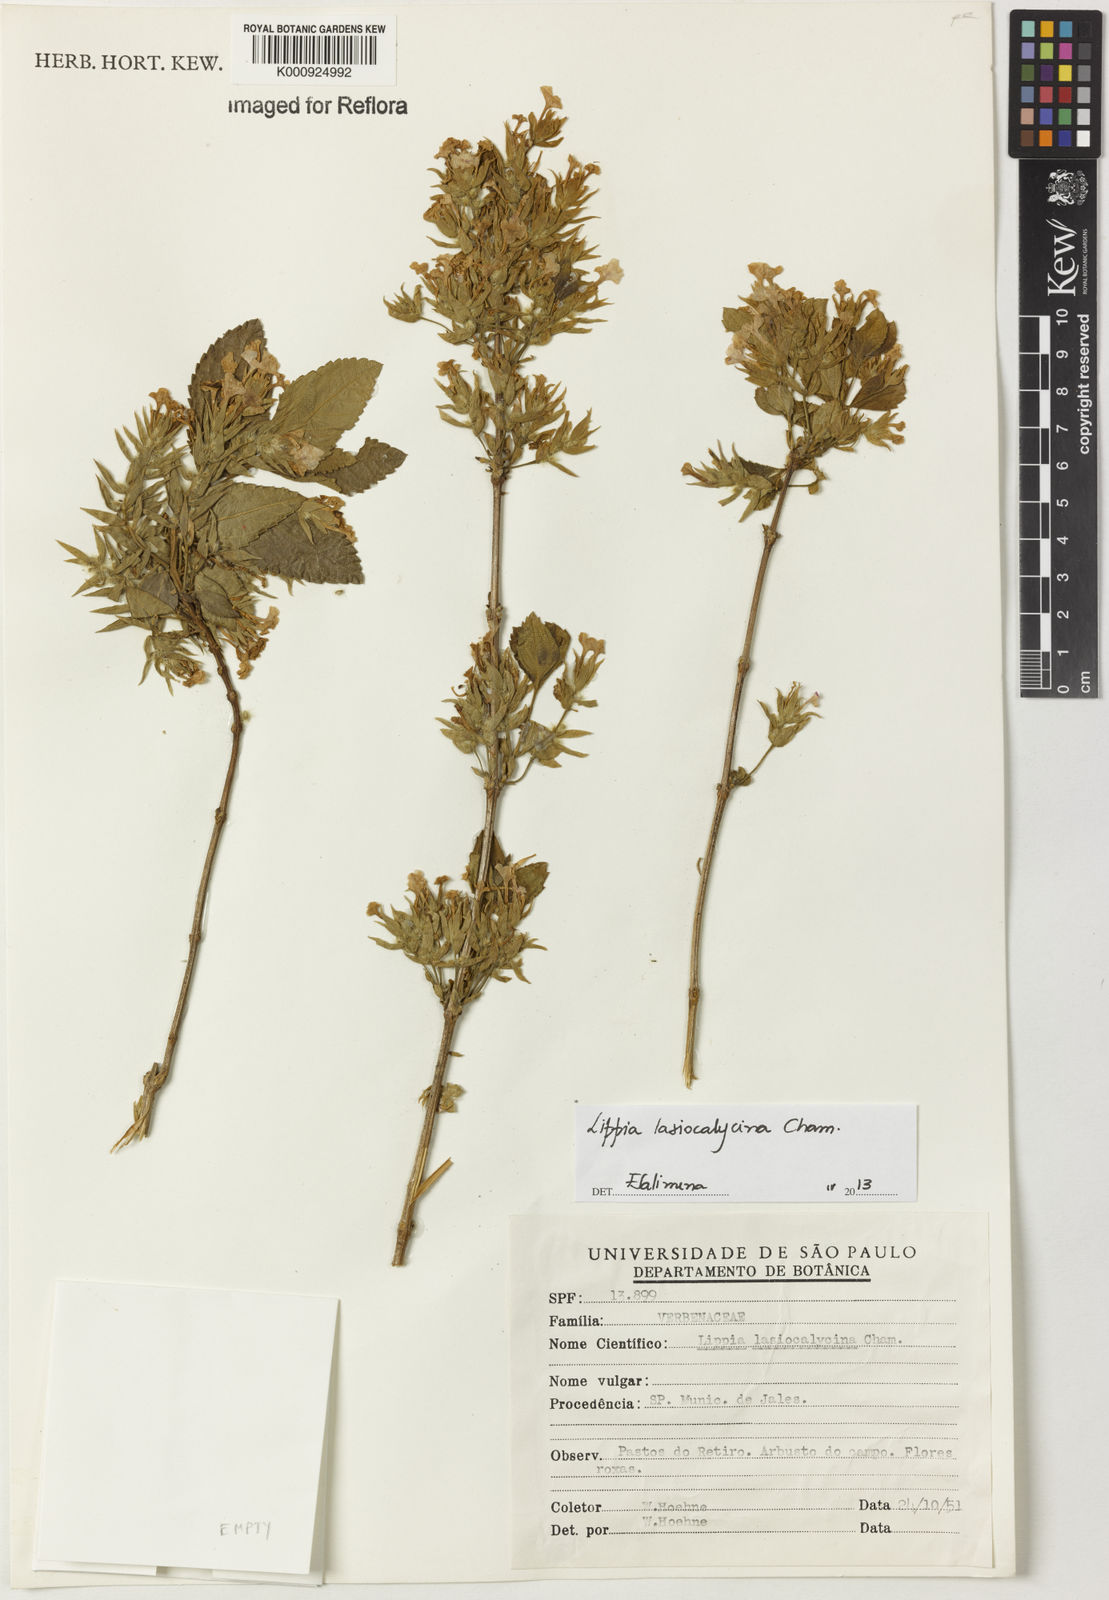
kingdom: Plantae
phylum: Tracheophyta
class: Magnoliopsida
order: Lamiales
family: Verbenaceae
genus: Lippia
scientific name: Lippia lasiocalycina
